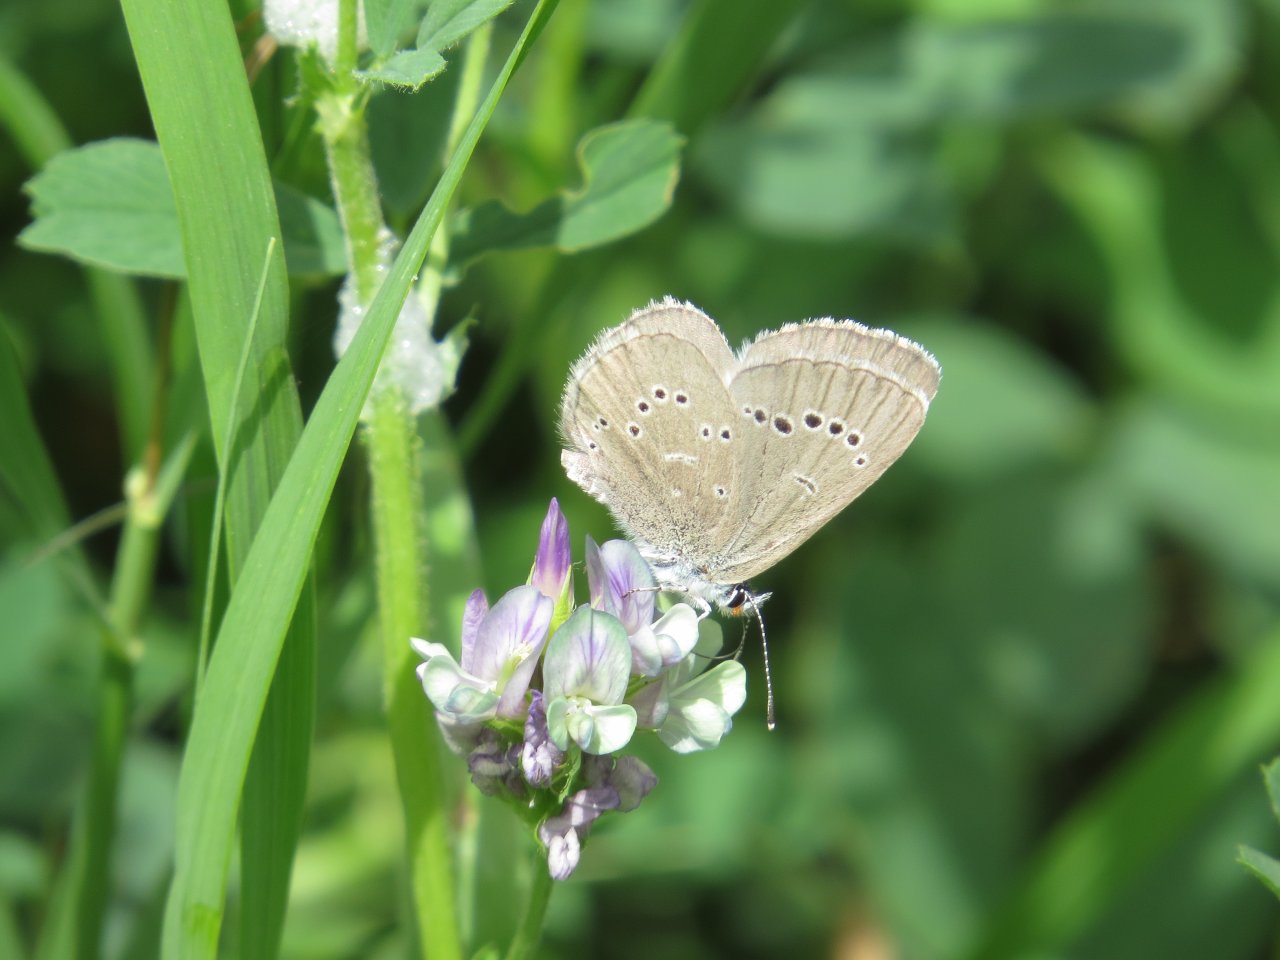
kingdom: Animalia
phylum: Arthropoda
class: Insecta
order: Lepidoptera
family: Lycaenidae
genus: Glaucopsyche
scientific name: Glaucopsyche lygdamus
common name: Silvery Blue
